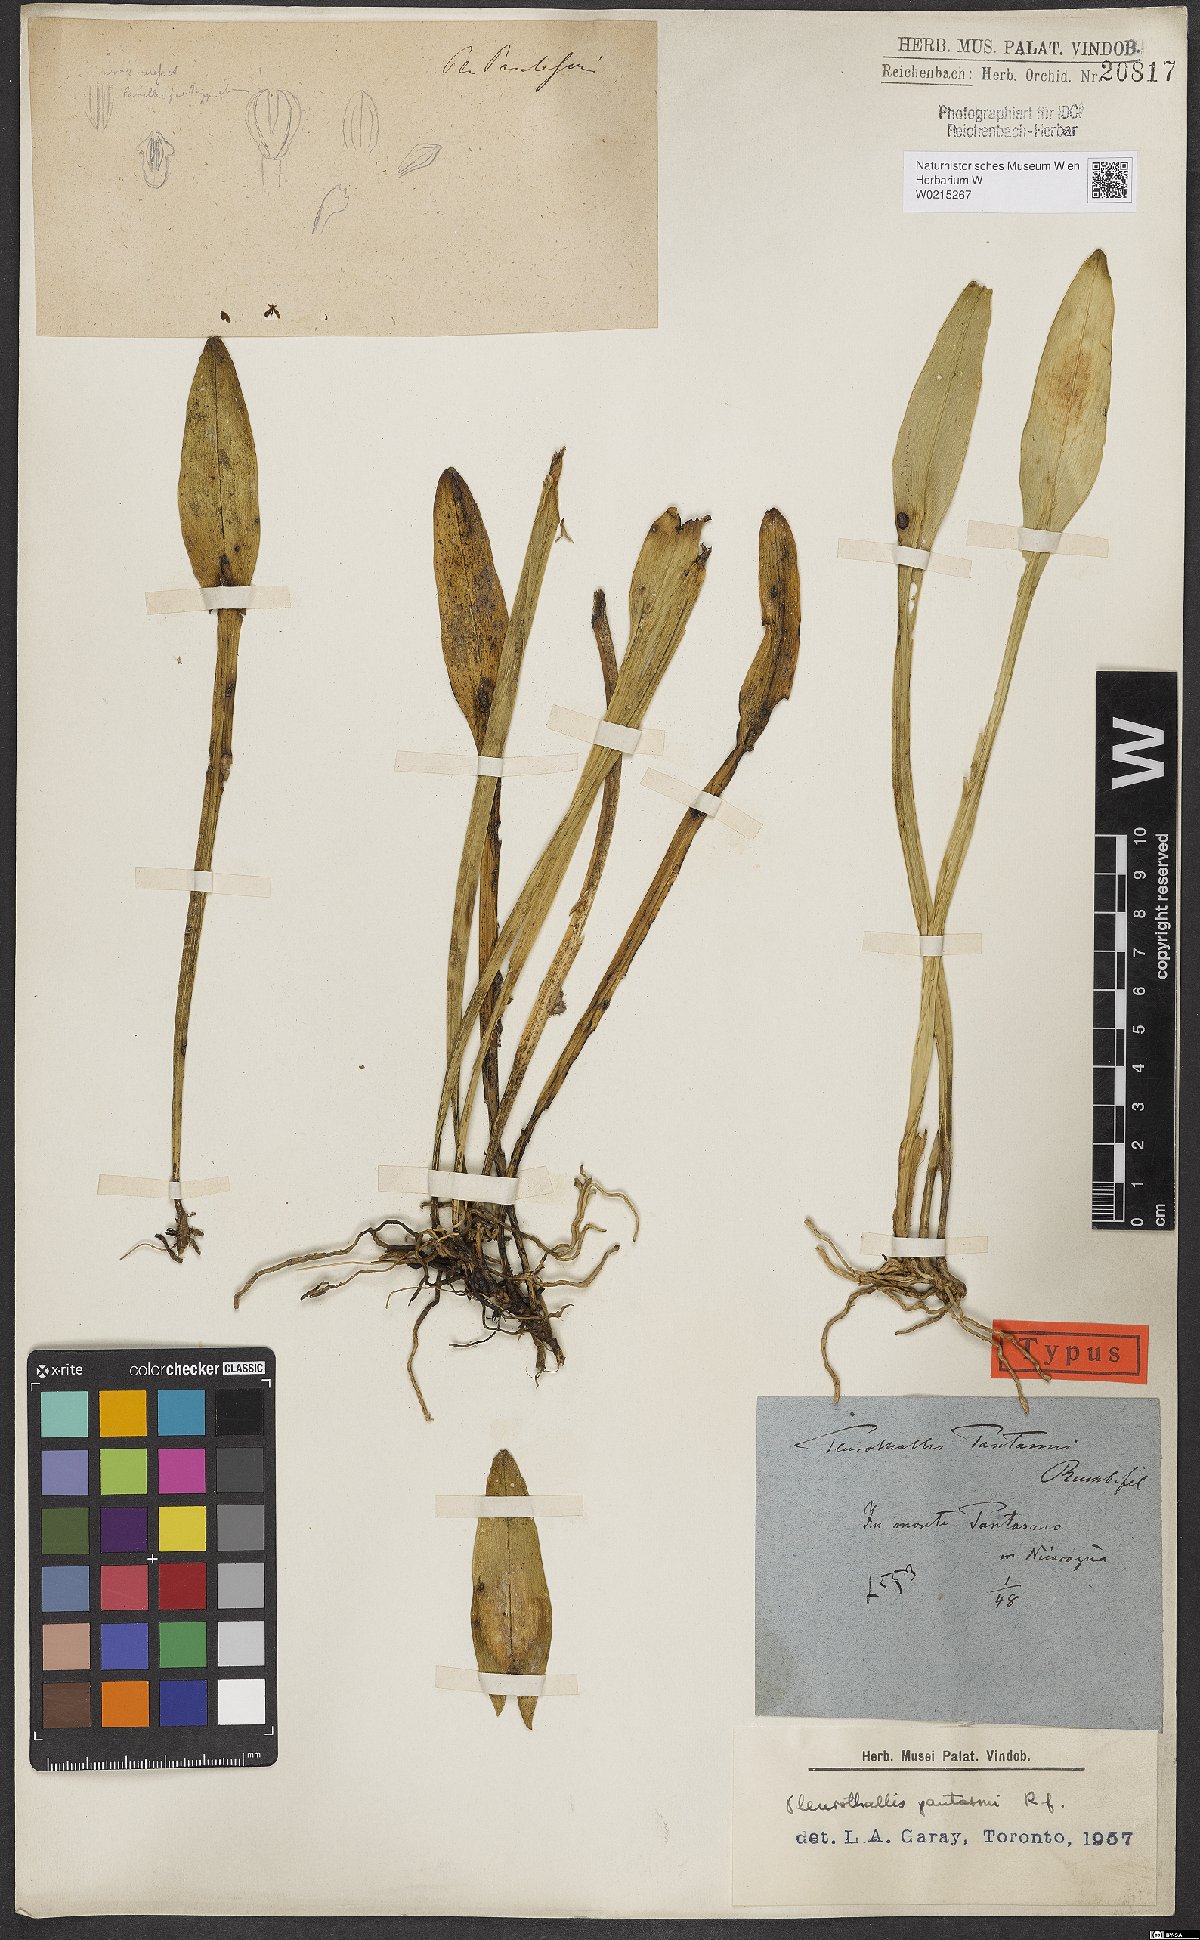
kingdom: Plantae
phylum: Tracheophyta
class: Liliopsida
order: Asparagales
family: Orchidaceae
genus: Acianthera
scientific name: Acianthera pantasmi
